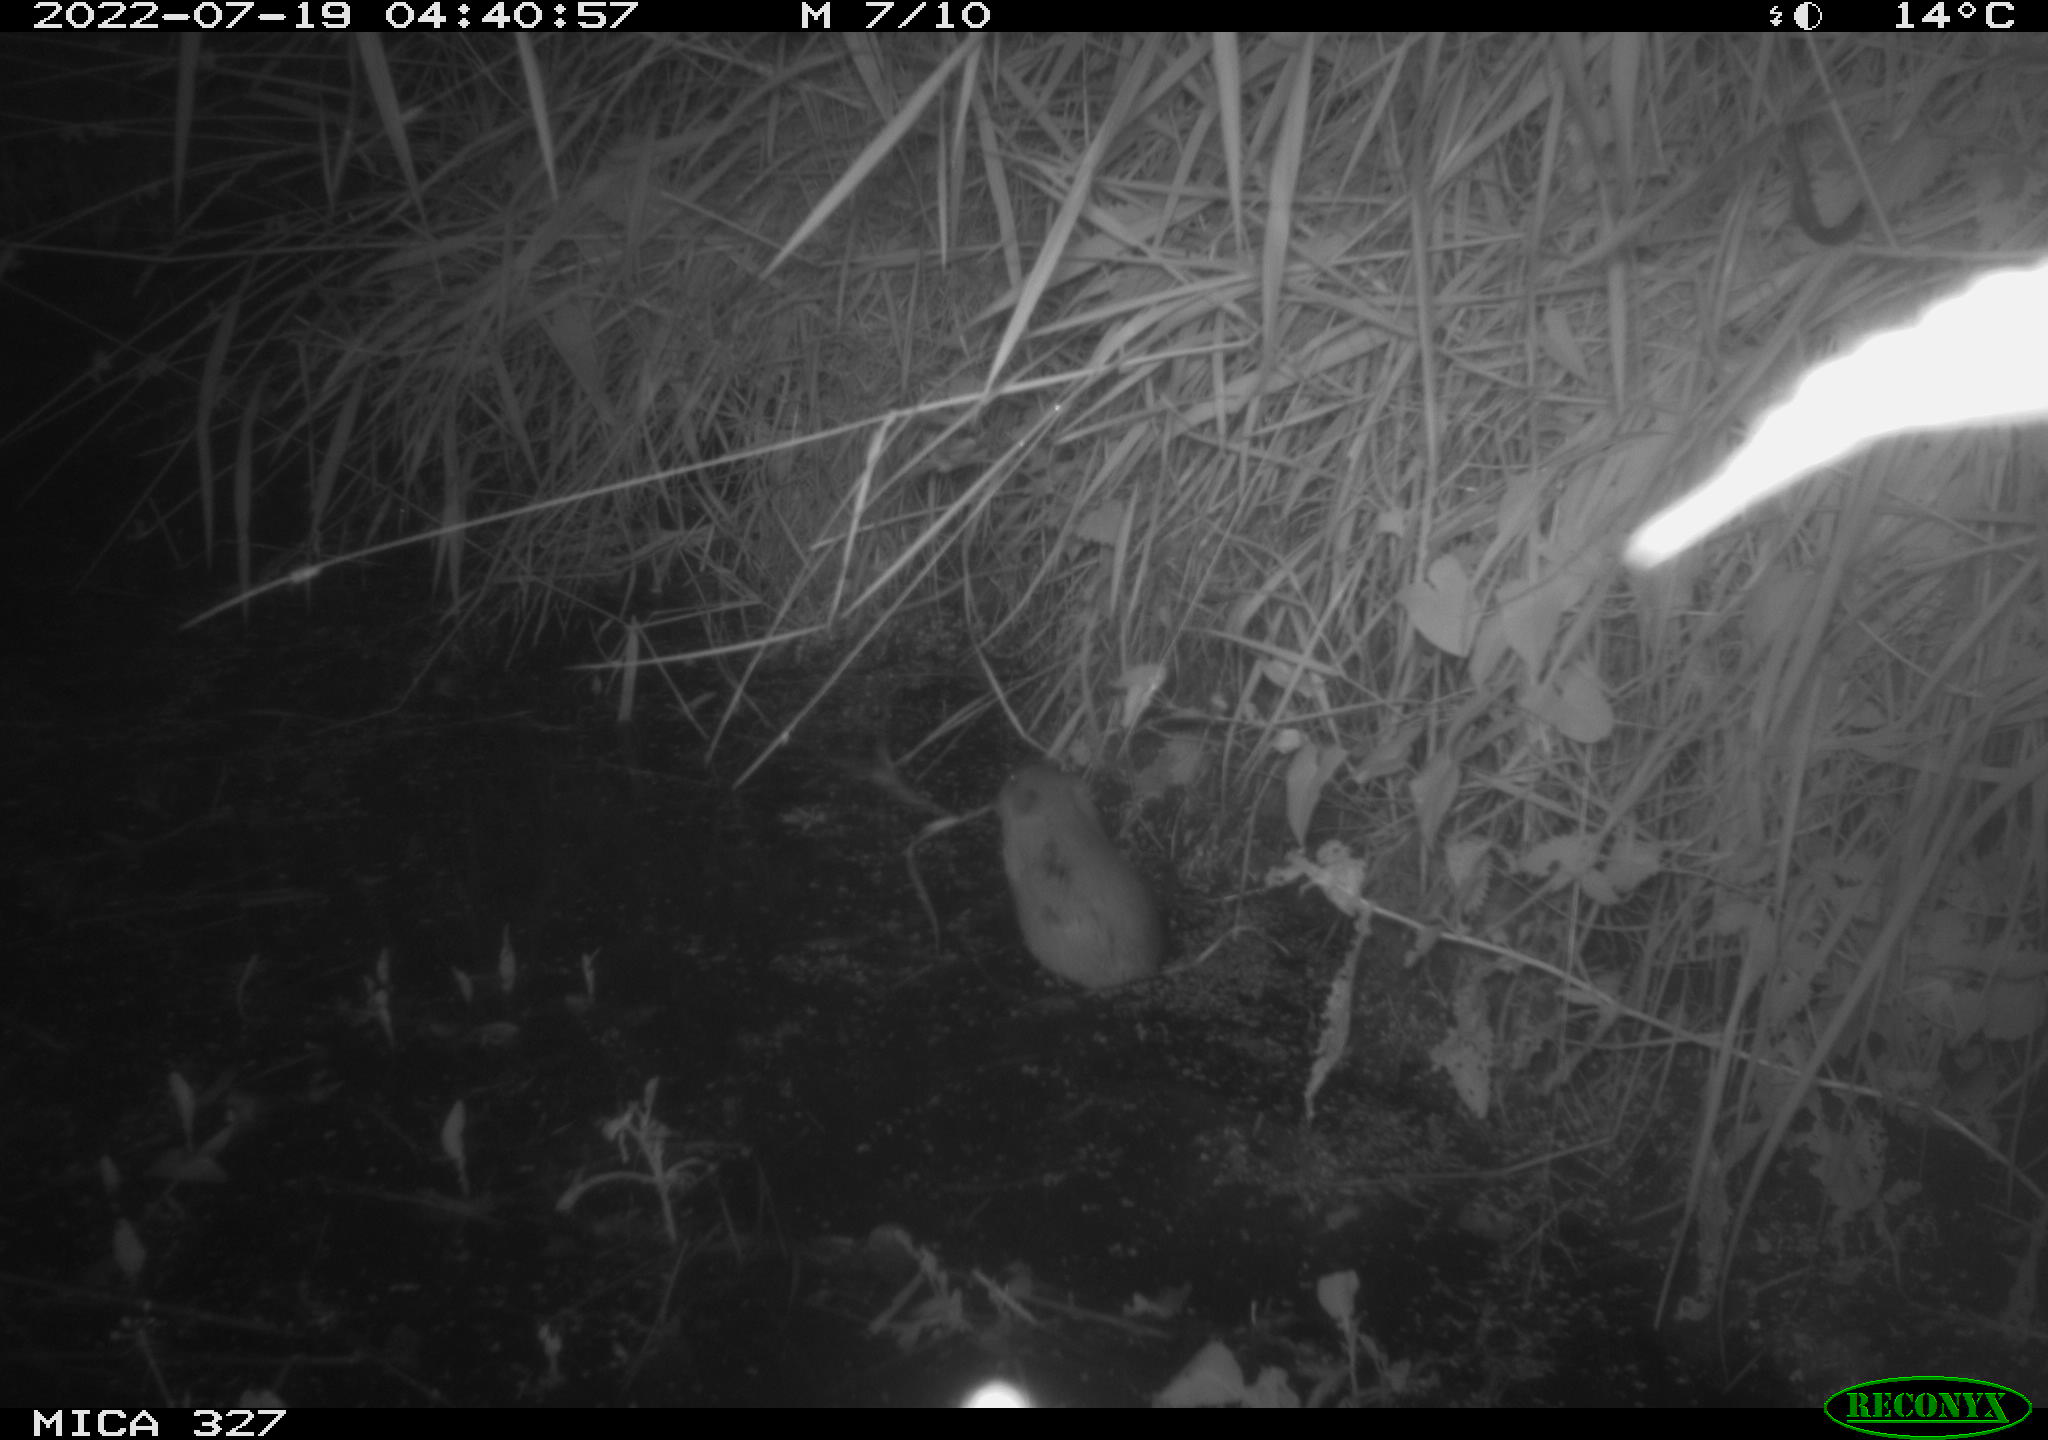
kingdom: Animalia
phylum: Chordata
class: Mammalia
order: Rodentia
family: Cricetidae
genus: Ondatra
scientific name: Ondatra zibethicus
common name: Muskrat
